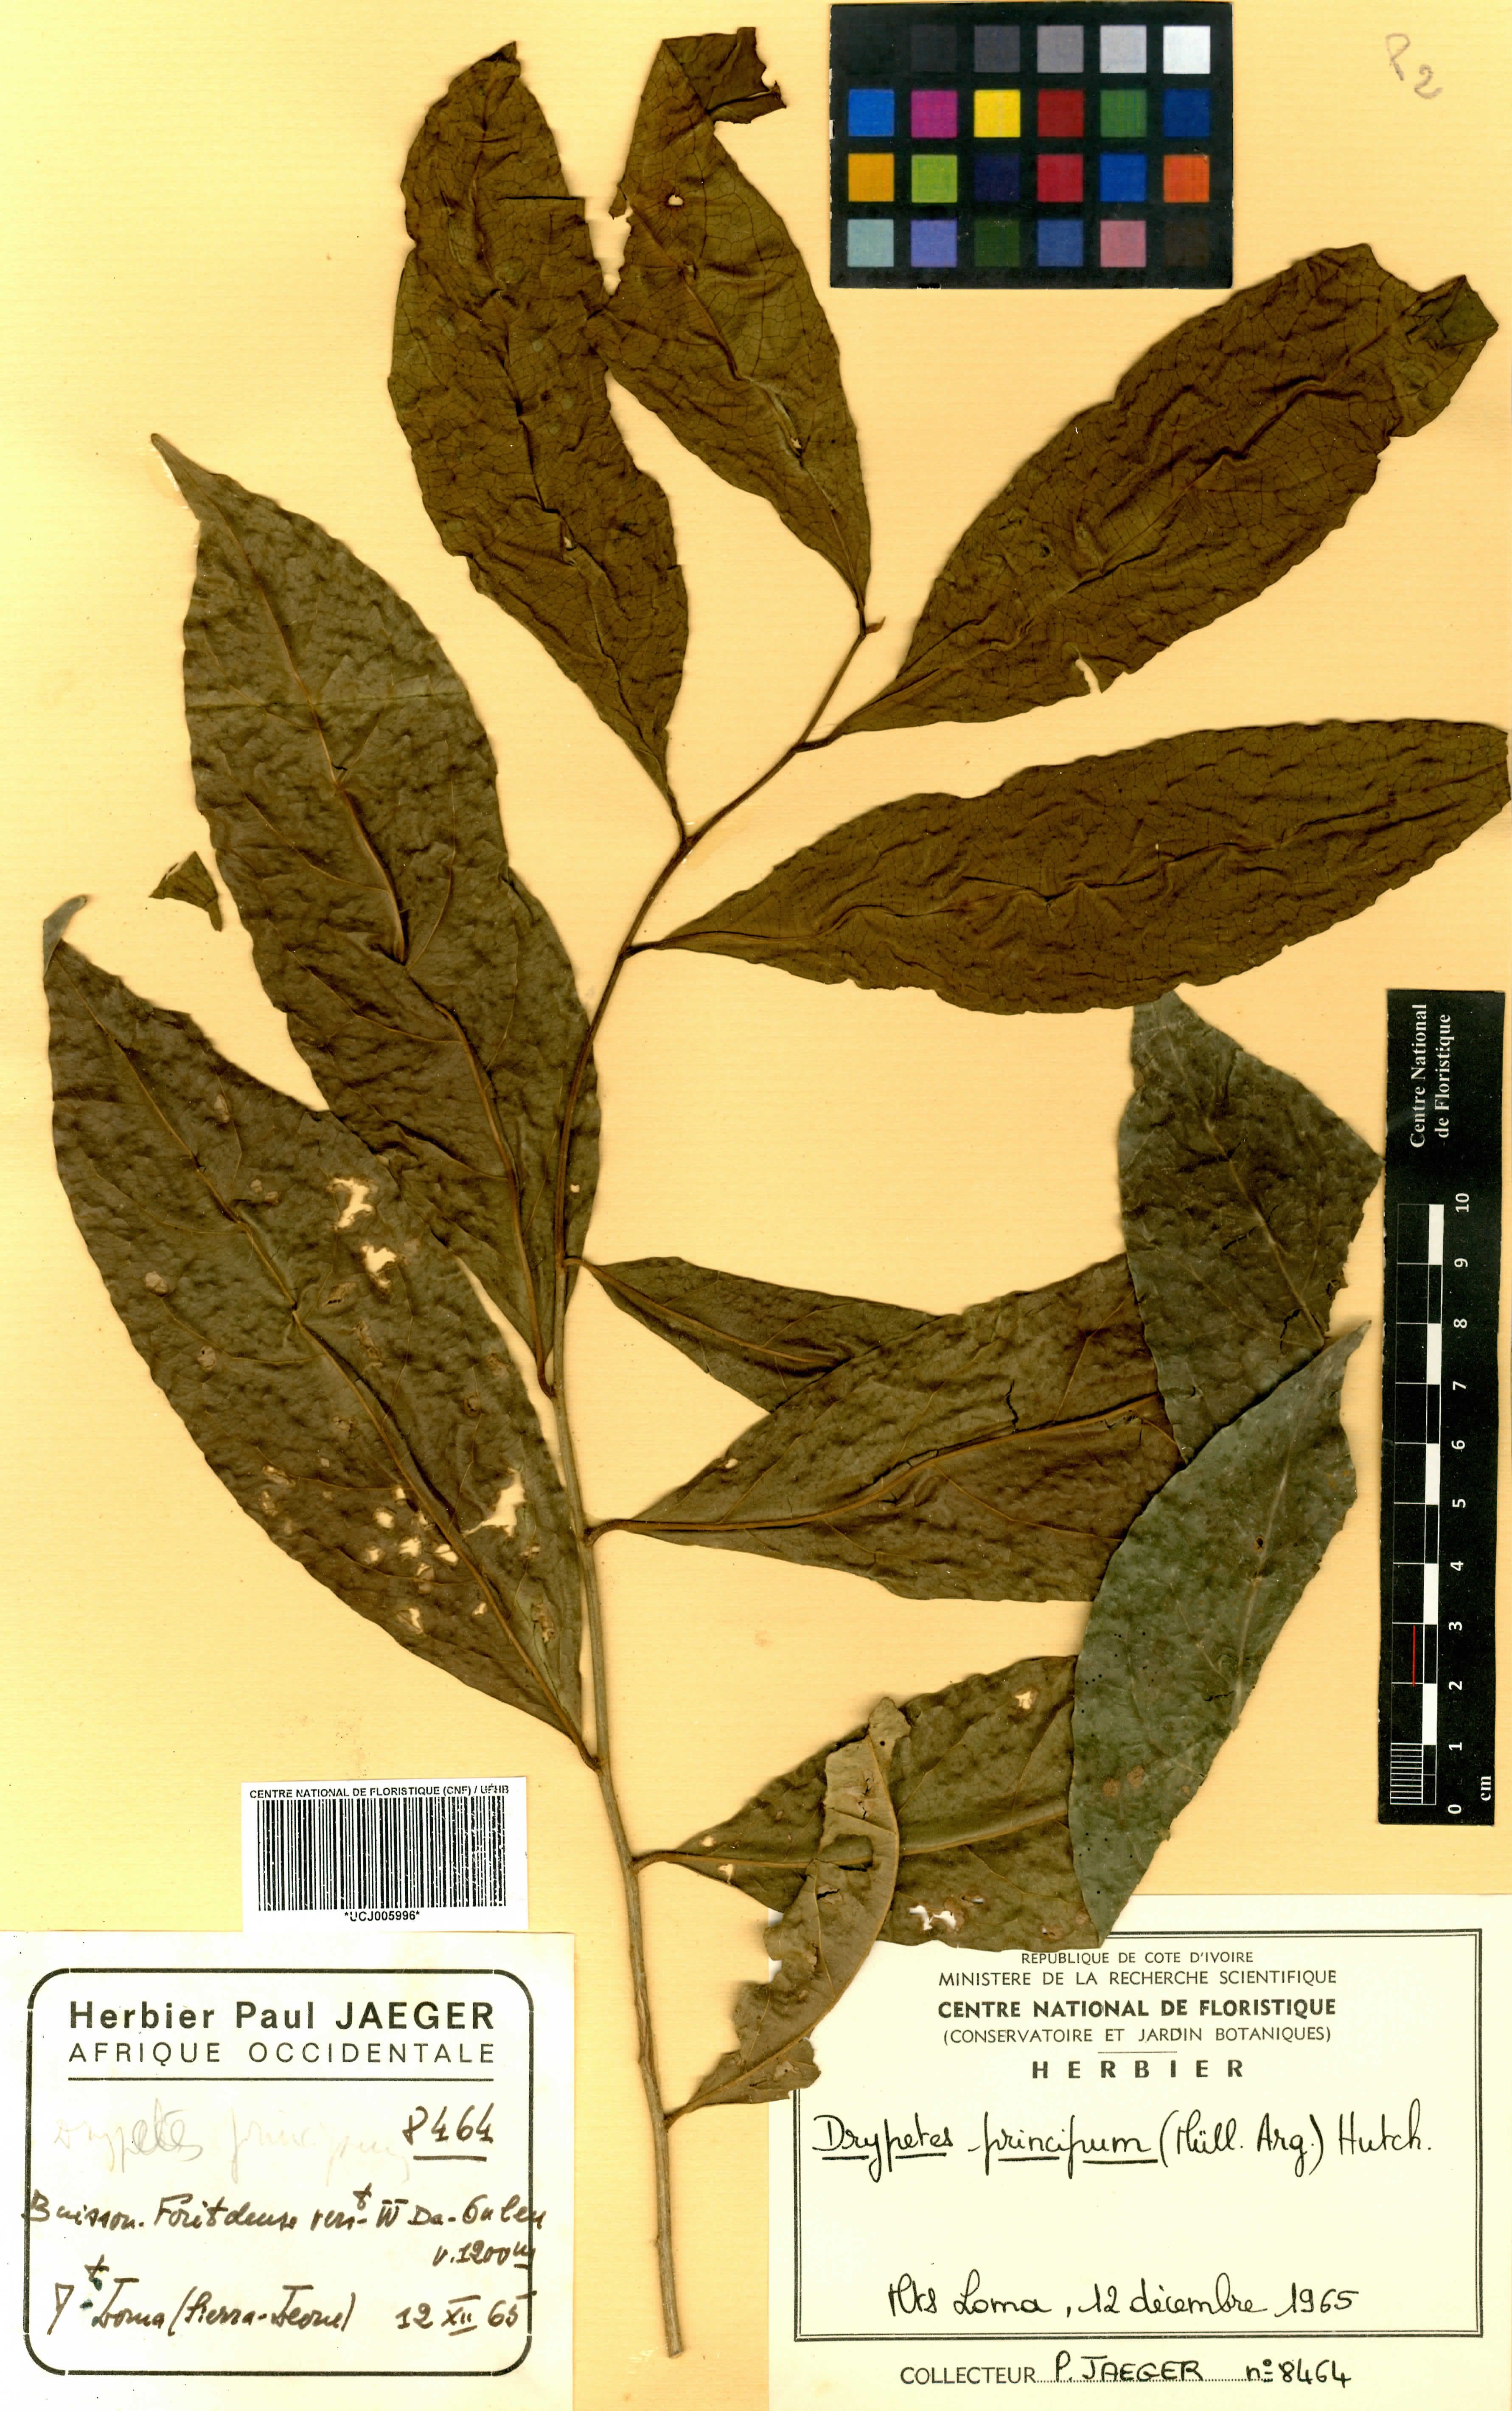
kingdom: Plantae
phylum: Tracheophyta
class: Magnoliopsida
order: Malpighiales
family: Putranjivaceae
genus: Drypetes
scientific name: Drypetes principum
